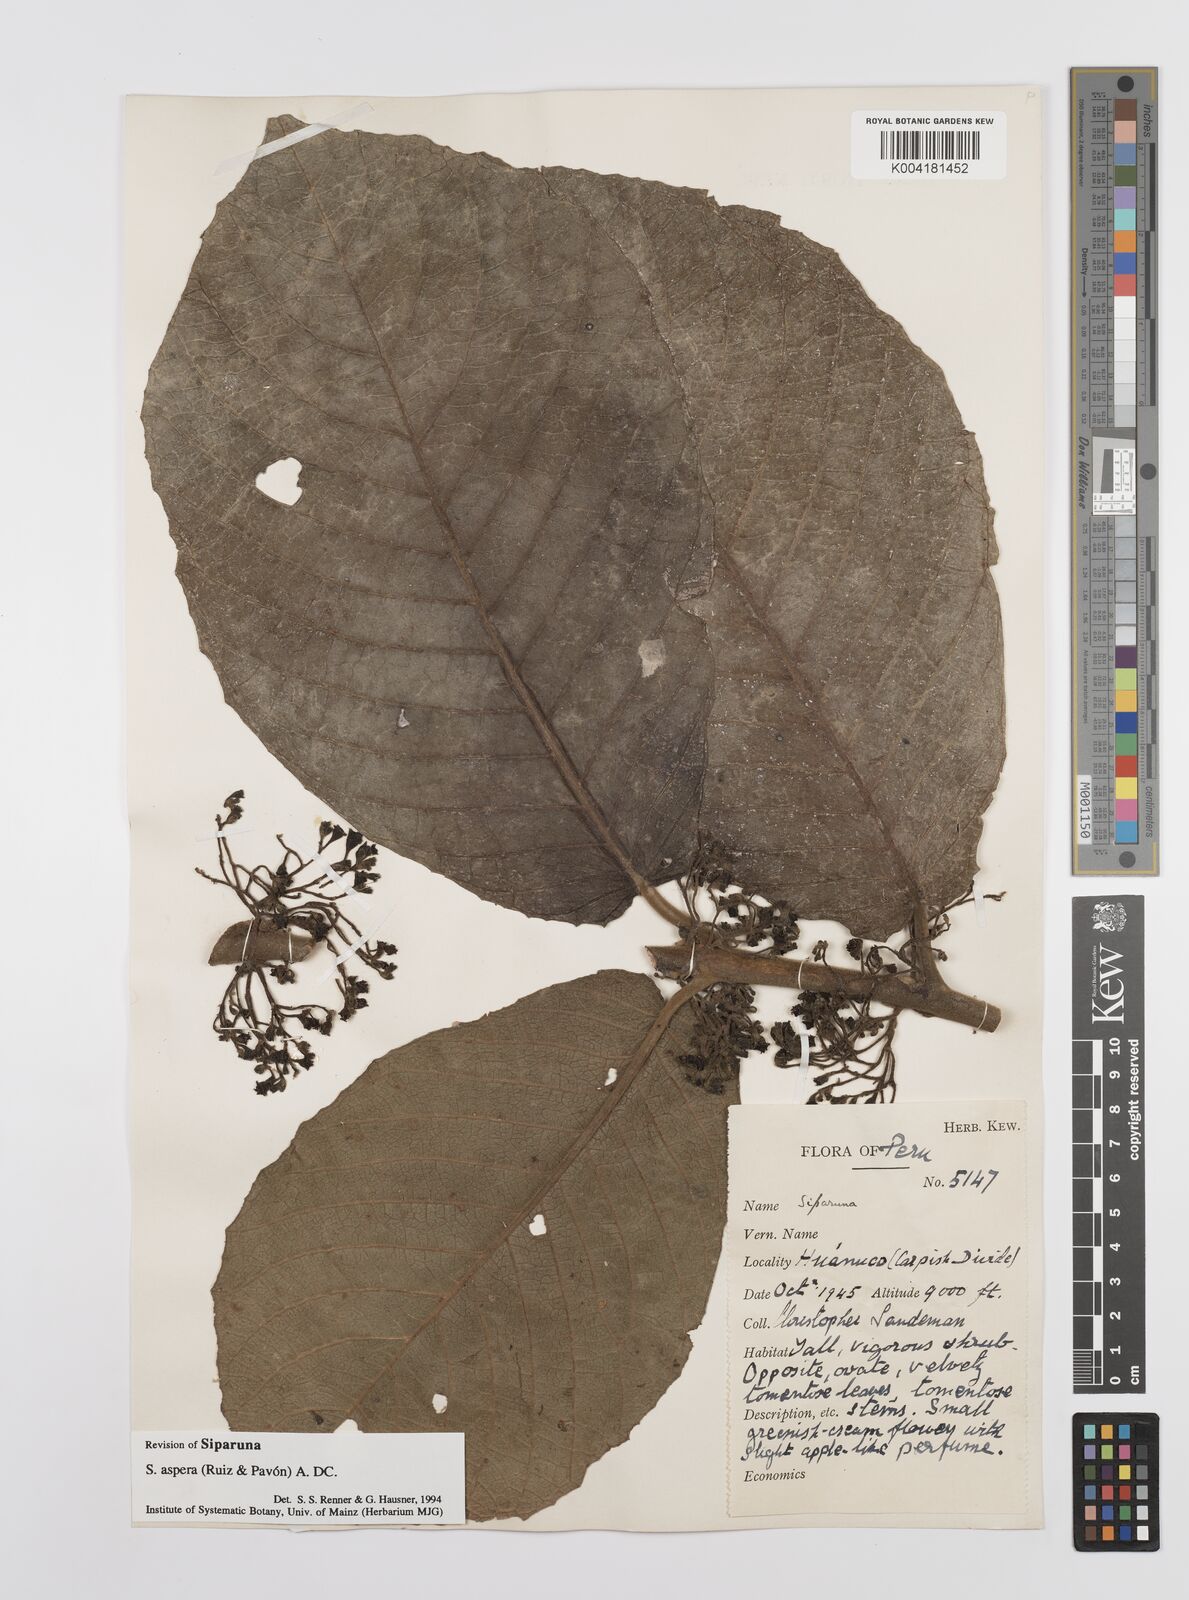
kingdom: Plantae
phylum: Tracheophyta
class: Magnoliopsida
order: Laurales
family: Siparunaceae
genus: Siparuna
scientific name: Siparuna aspera
